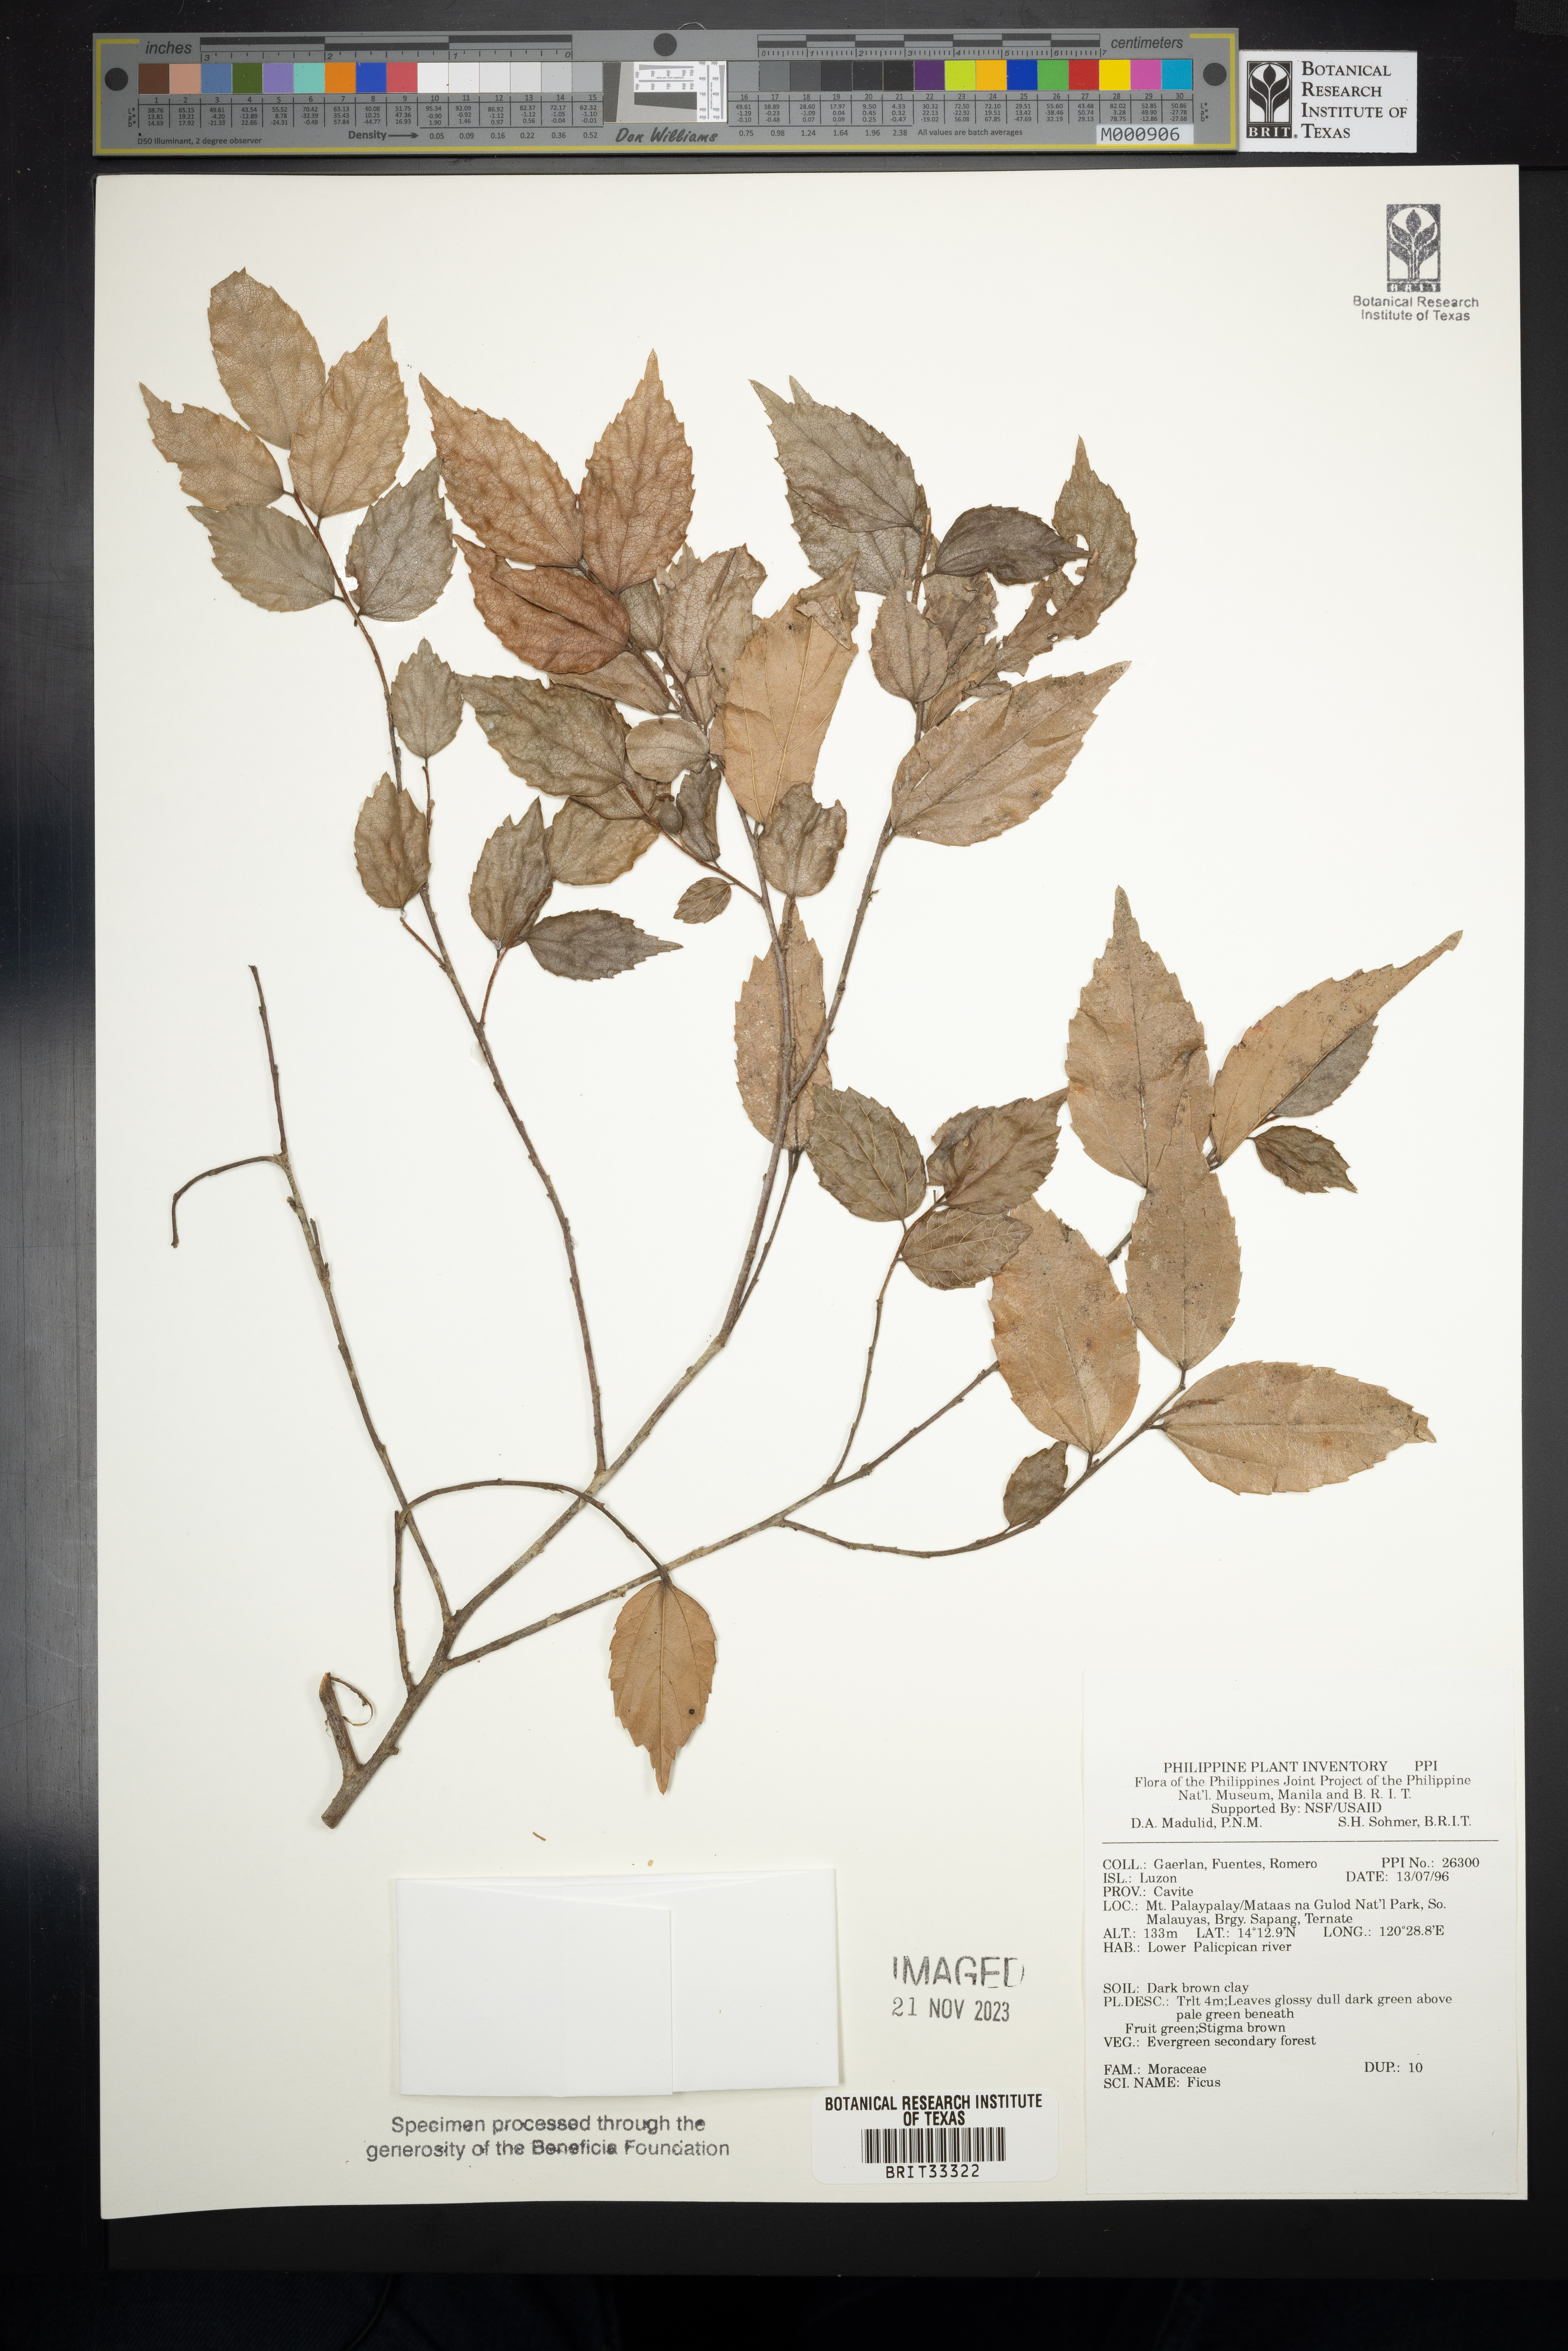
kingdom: Plantae
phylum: Tracheophyta
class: Magnoliopsida
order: Rosales
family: Moraceae
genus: Ficus
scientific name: Ficus
